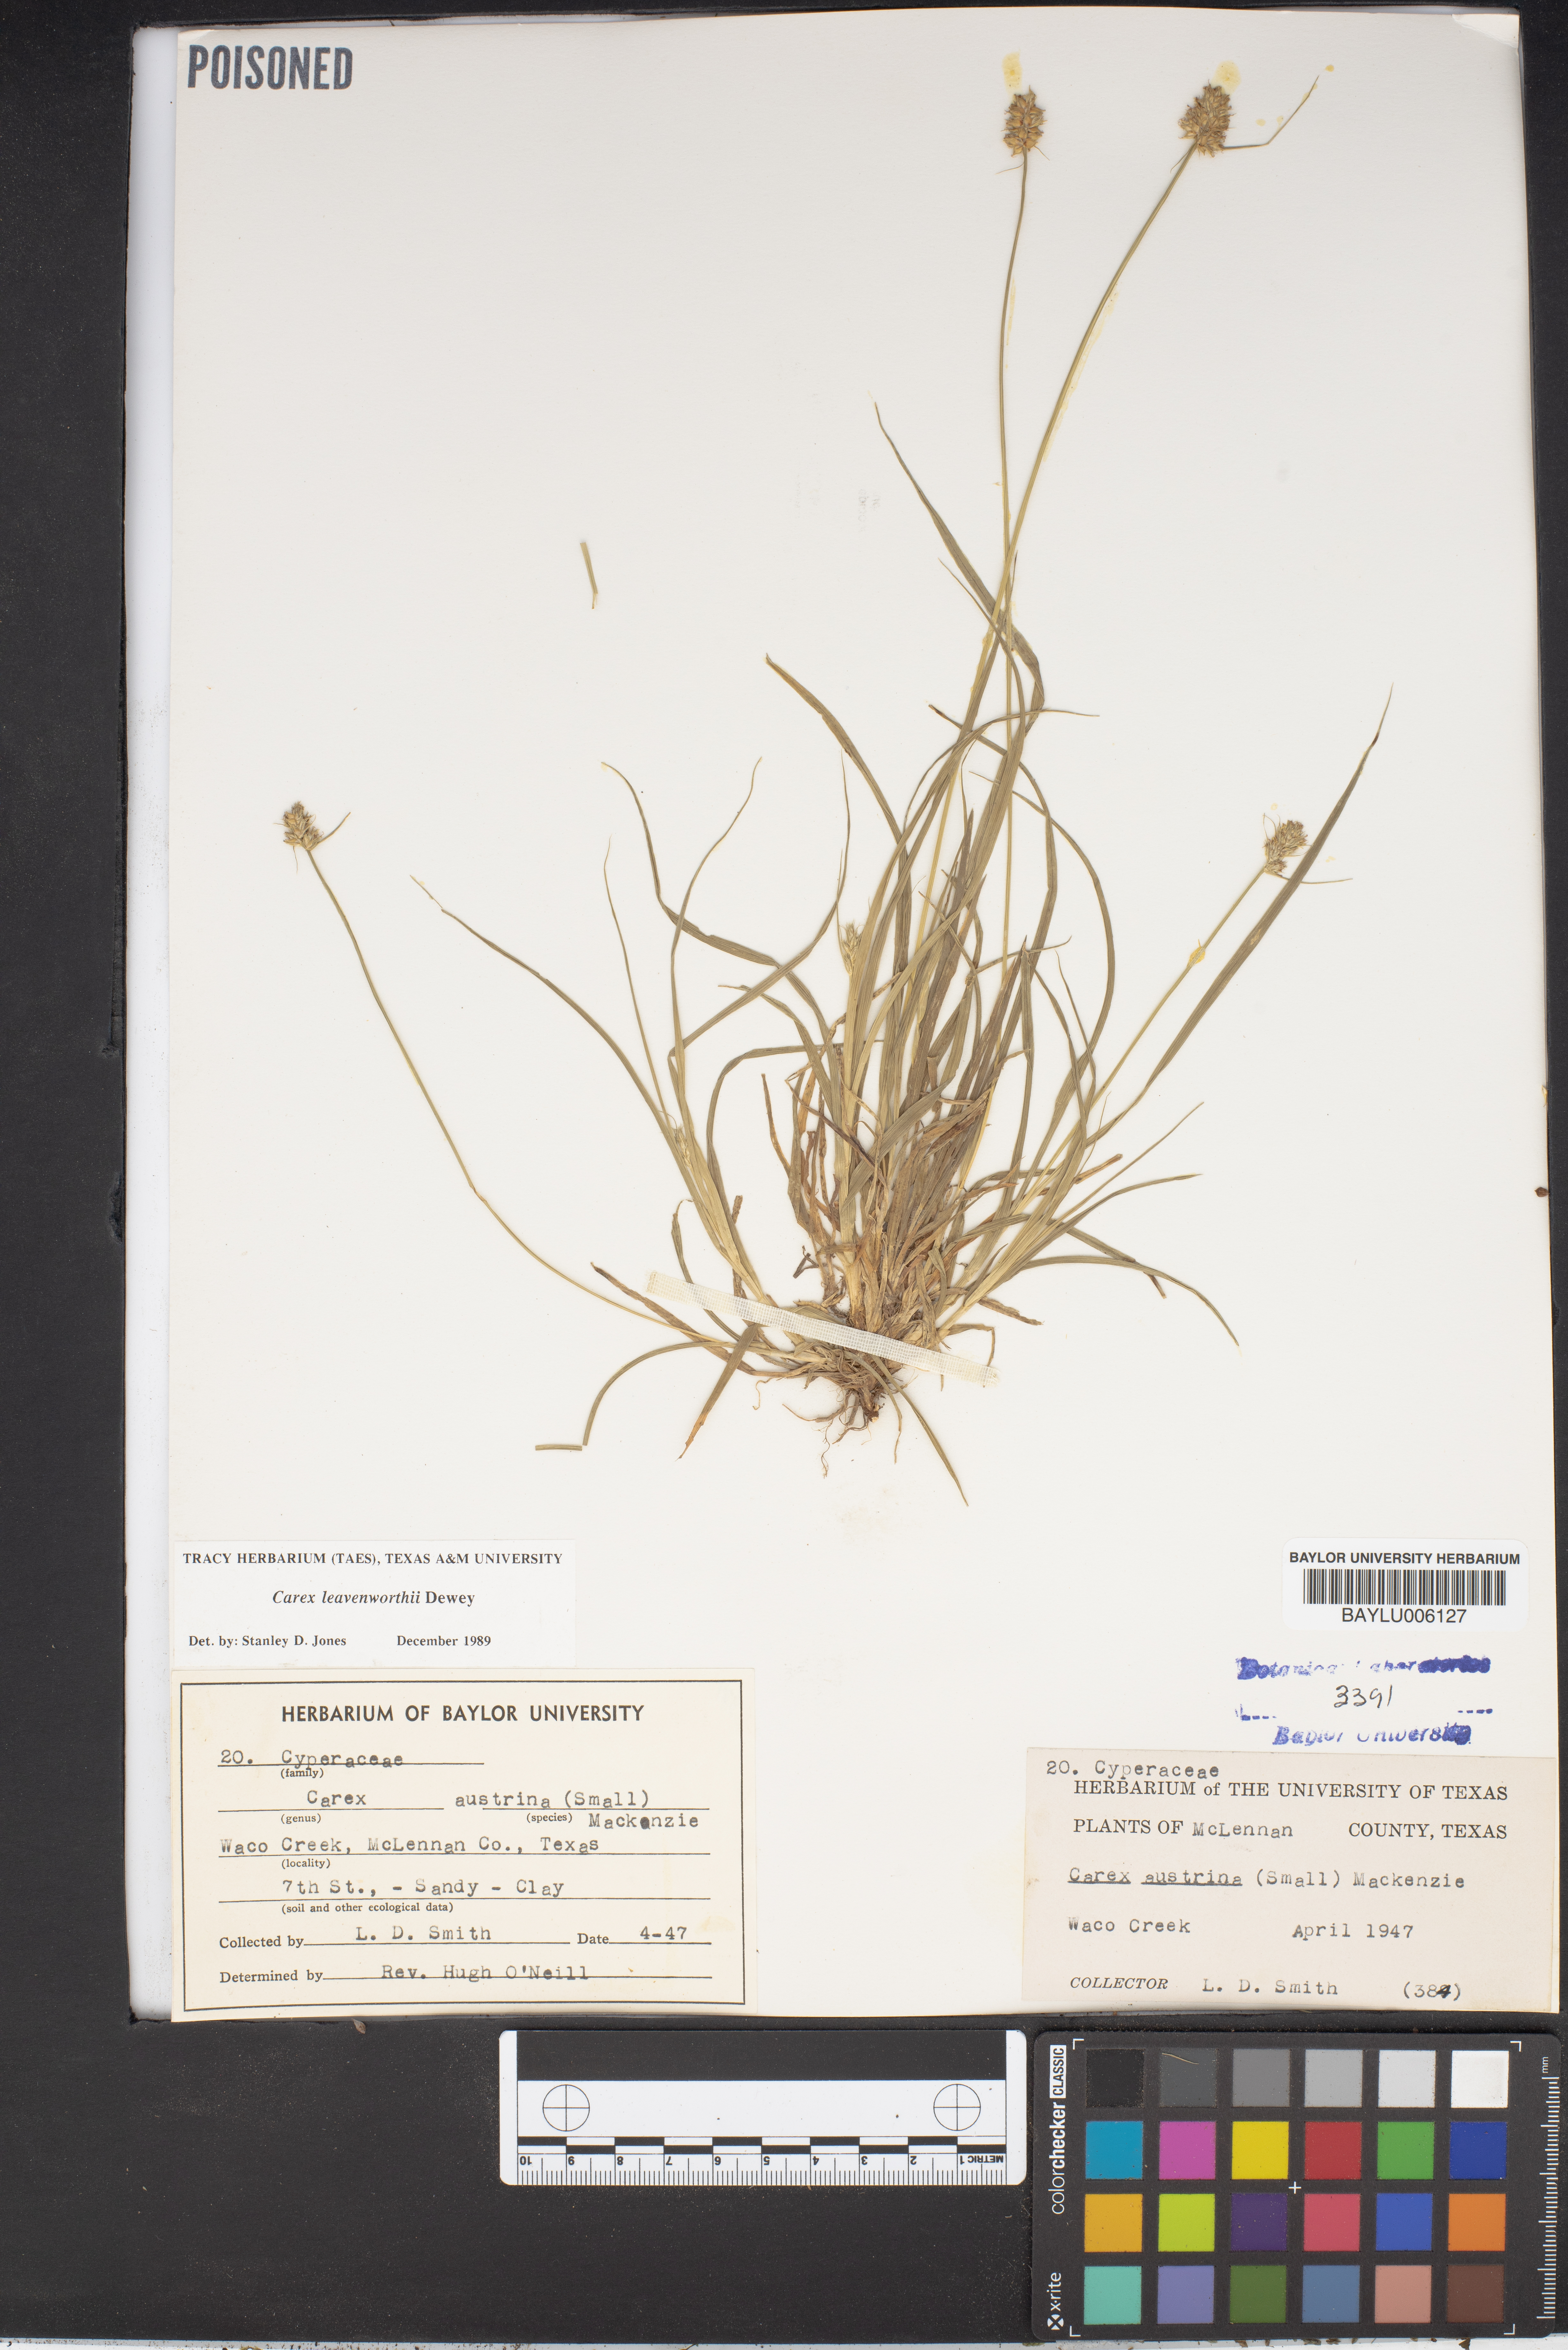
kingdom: Plantae
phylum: Tracheophyta
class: Liliopsida
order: Poales
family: Cyperaceae
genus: Carex
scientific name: Carex austrina
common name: Southern sedge
